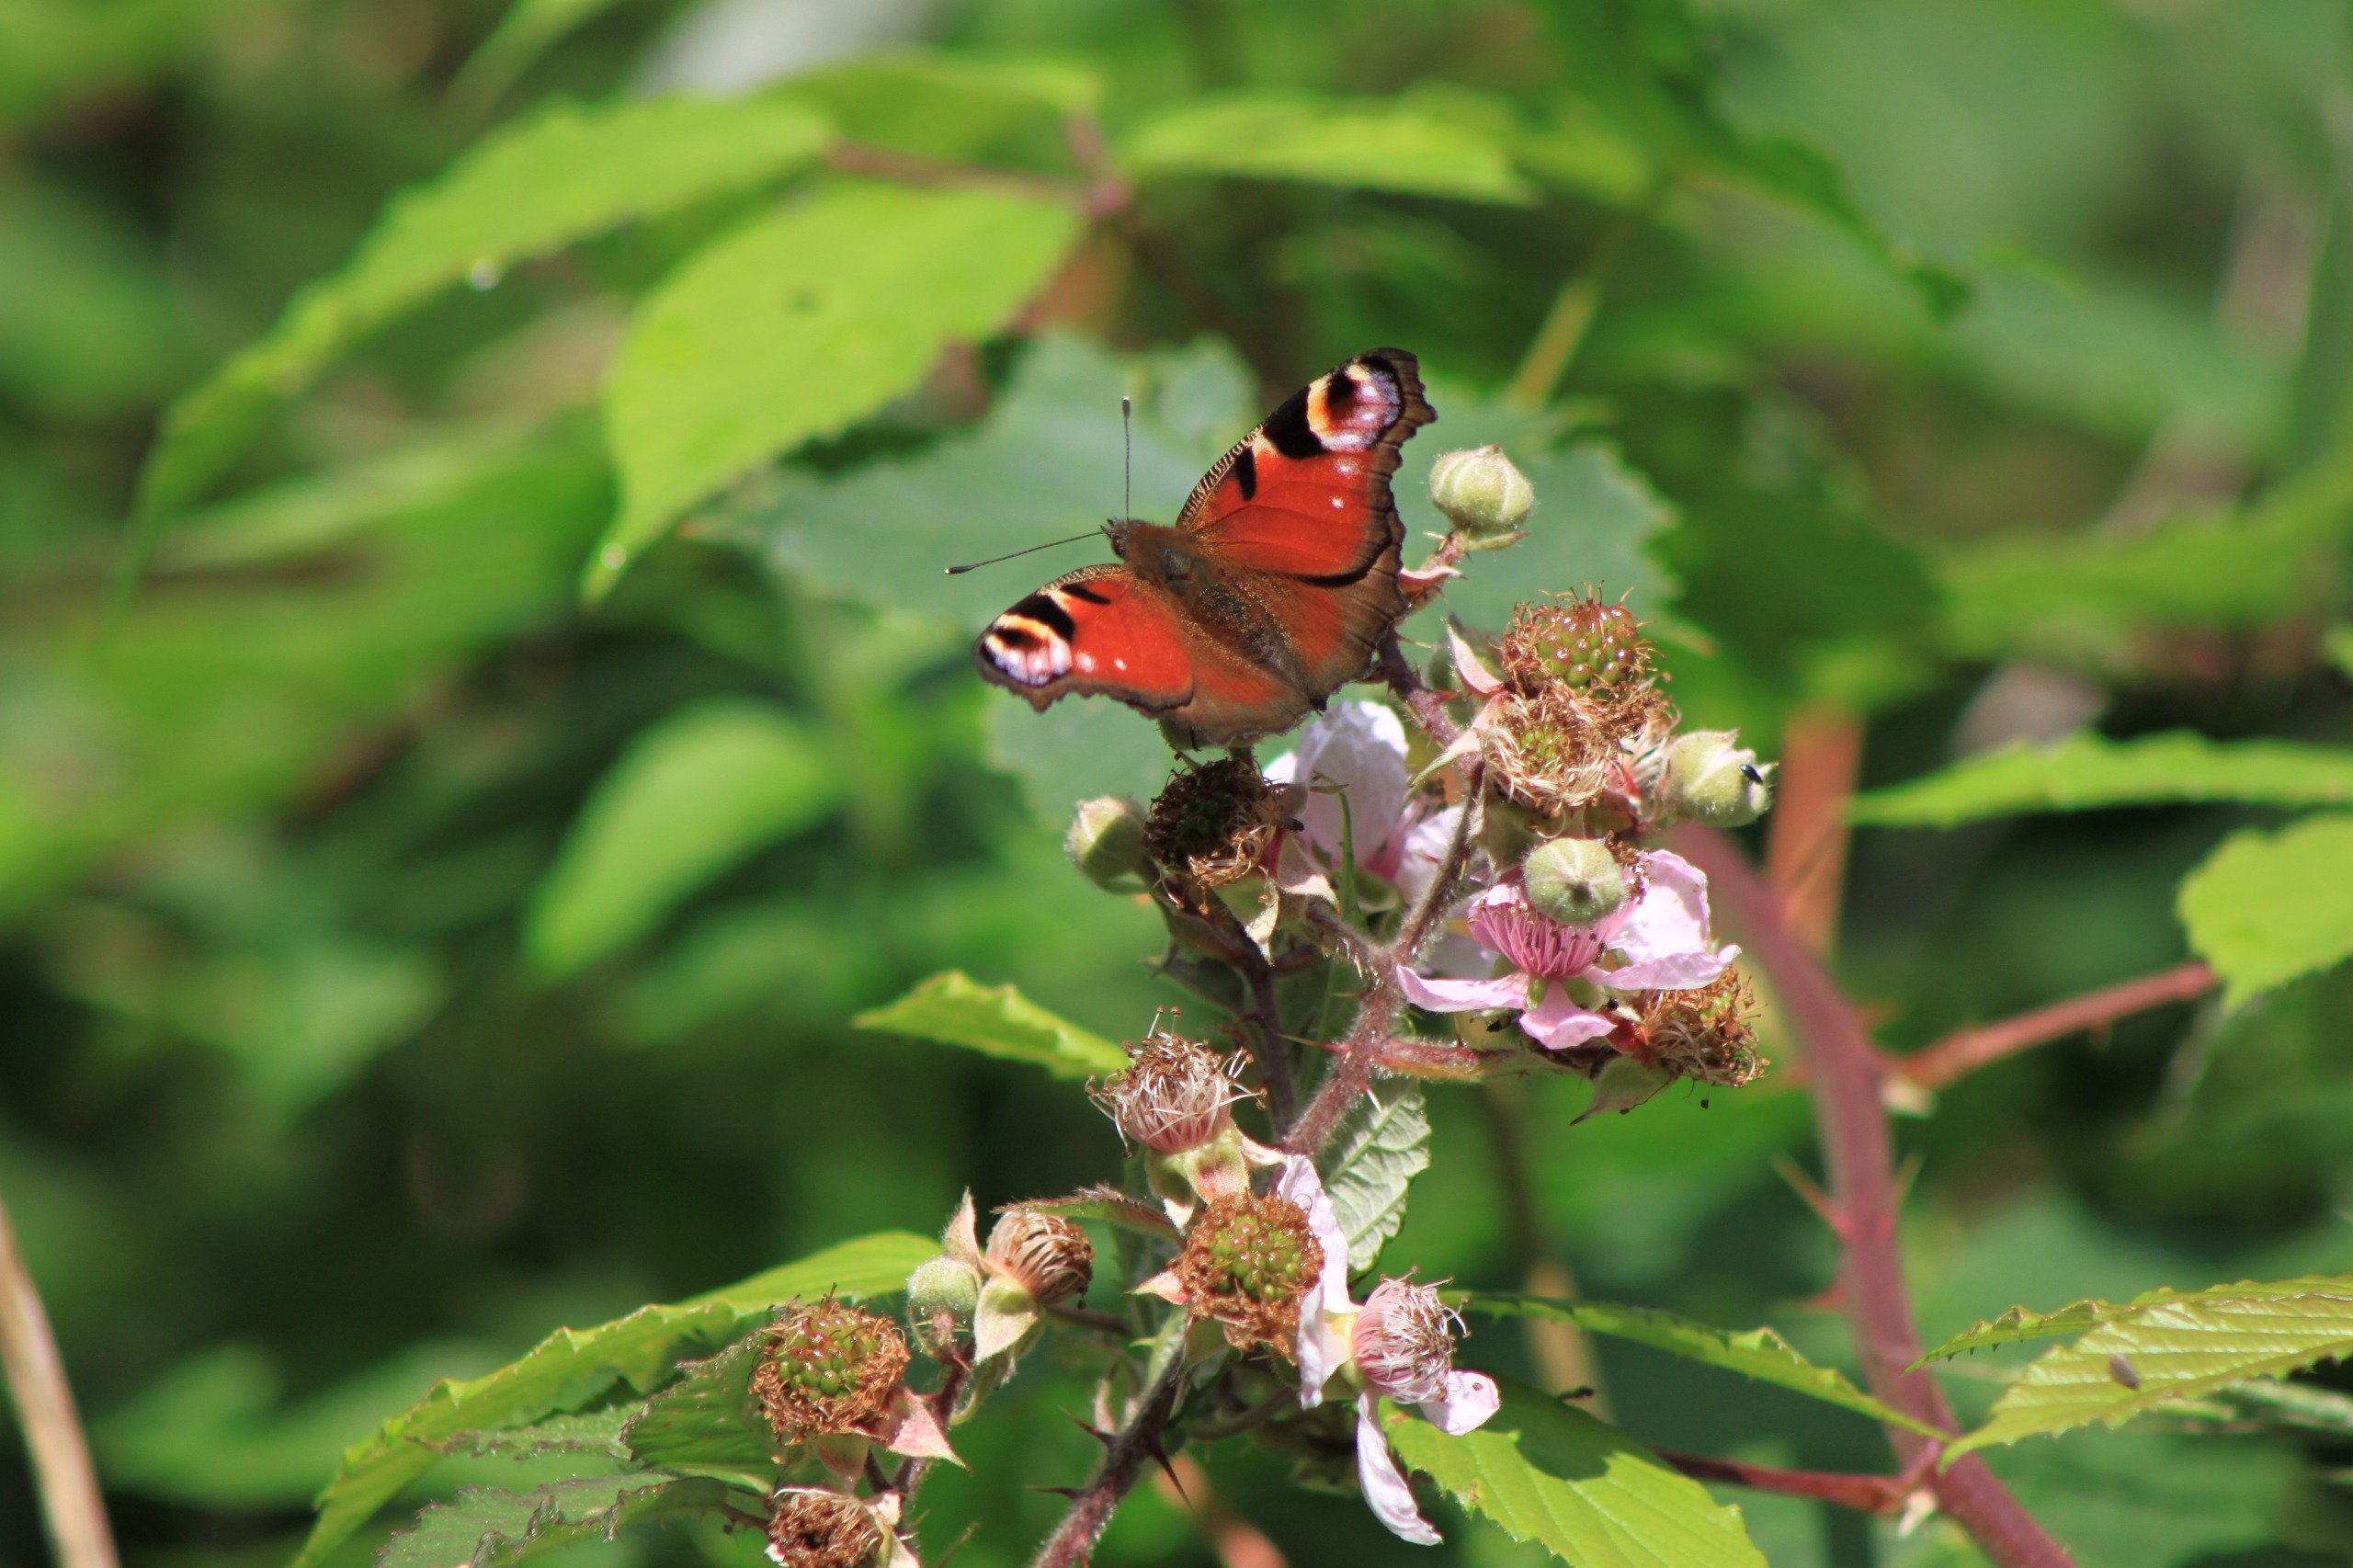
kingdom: Animalia
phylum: Arthropoda
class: Insecta
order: Lepidoptera
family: Nymphalidae
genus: Aglais
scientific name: Aglais io
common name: Dagpåfugleøje
